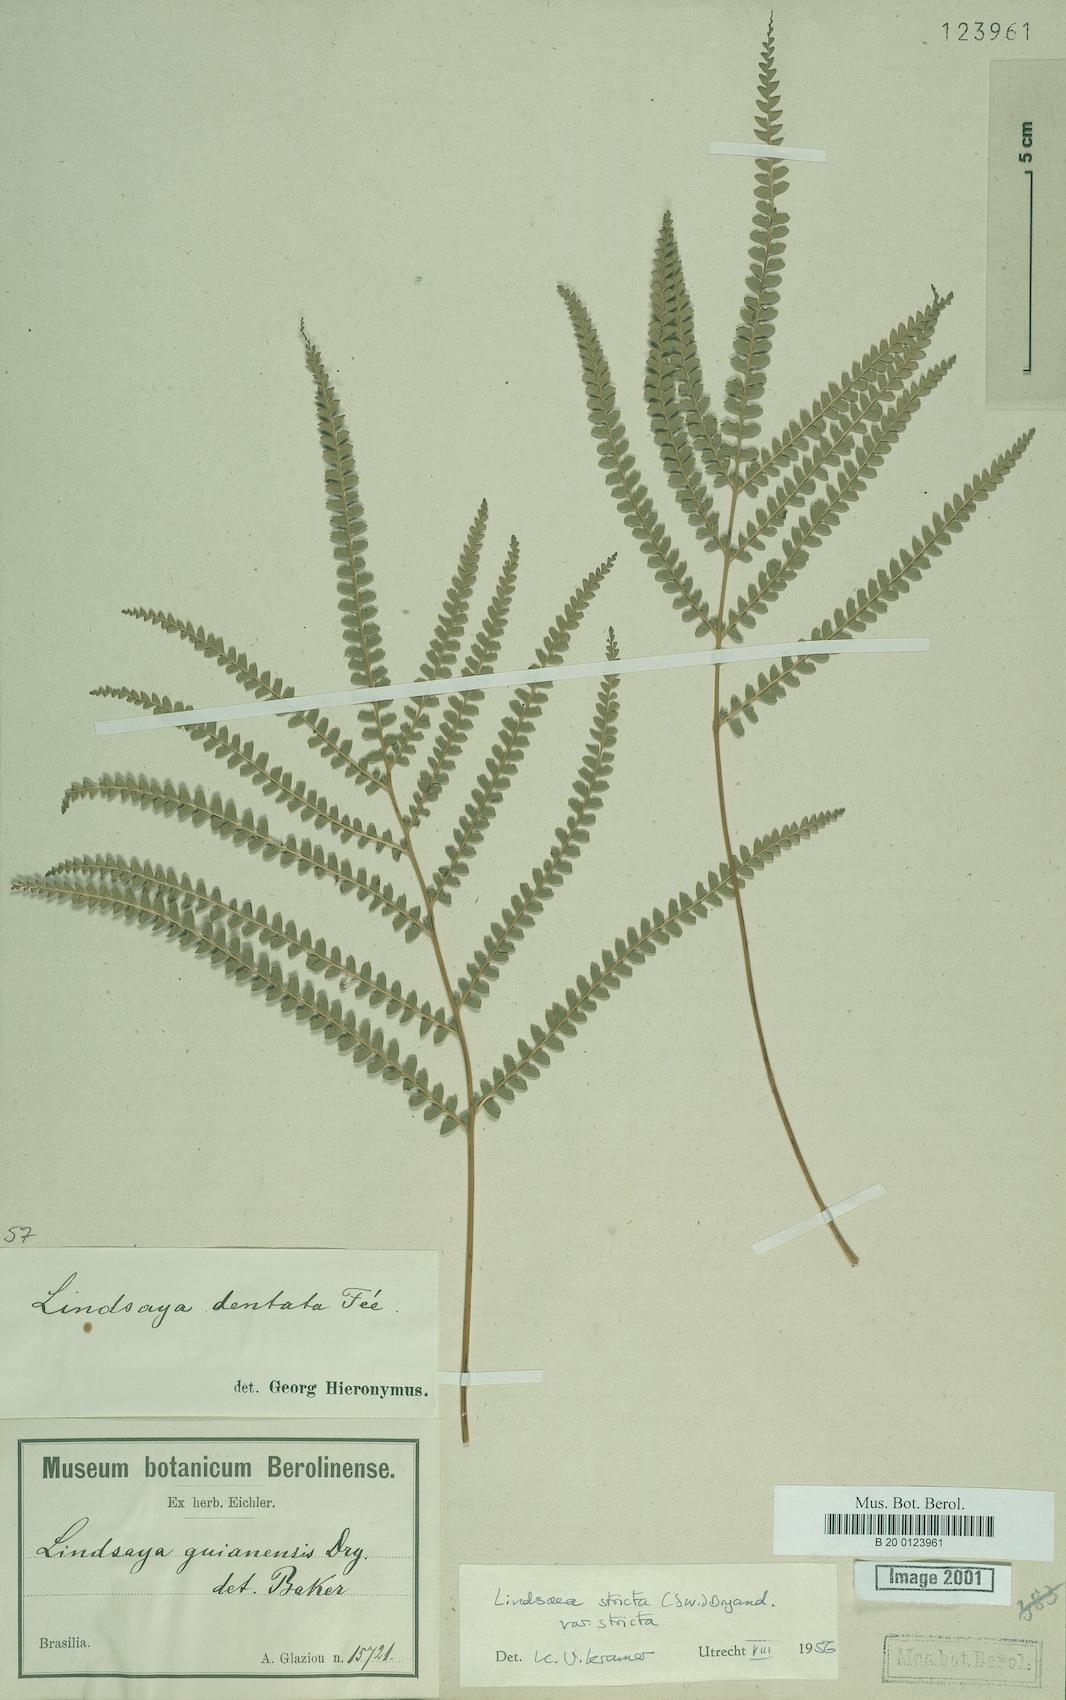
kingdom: Plantae
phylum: Tracheophyta
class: Polypodiopsida
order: Polypodiales
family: Lindsaeaceae
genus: Lindsaea
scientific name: Lindsaea stricta
